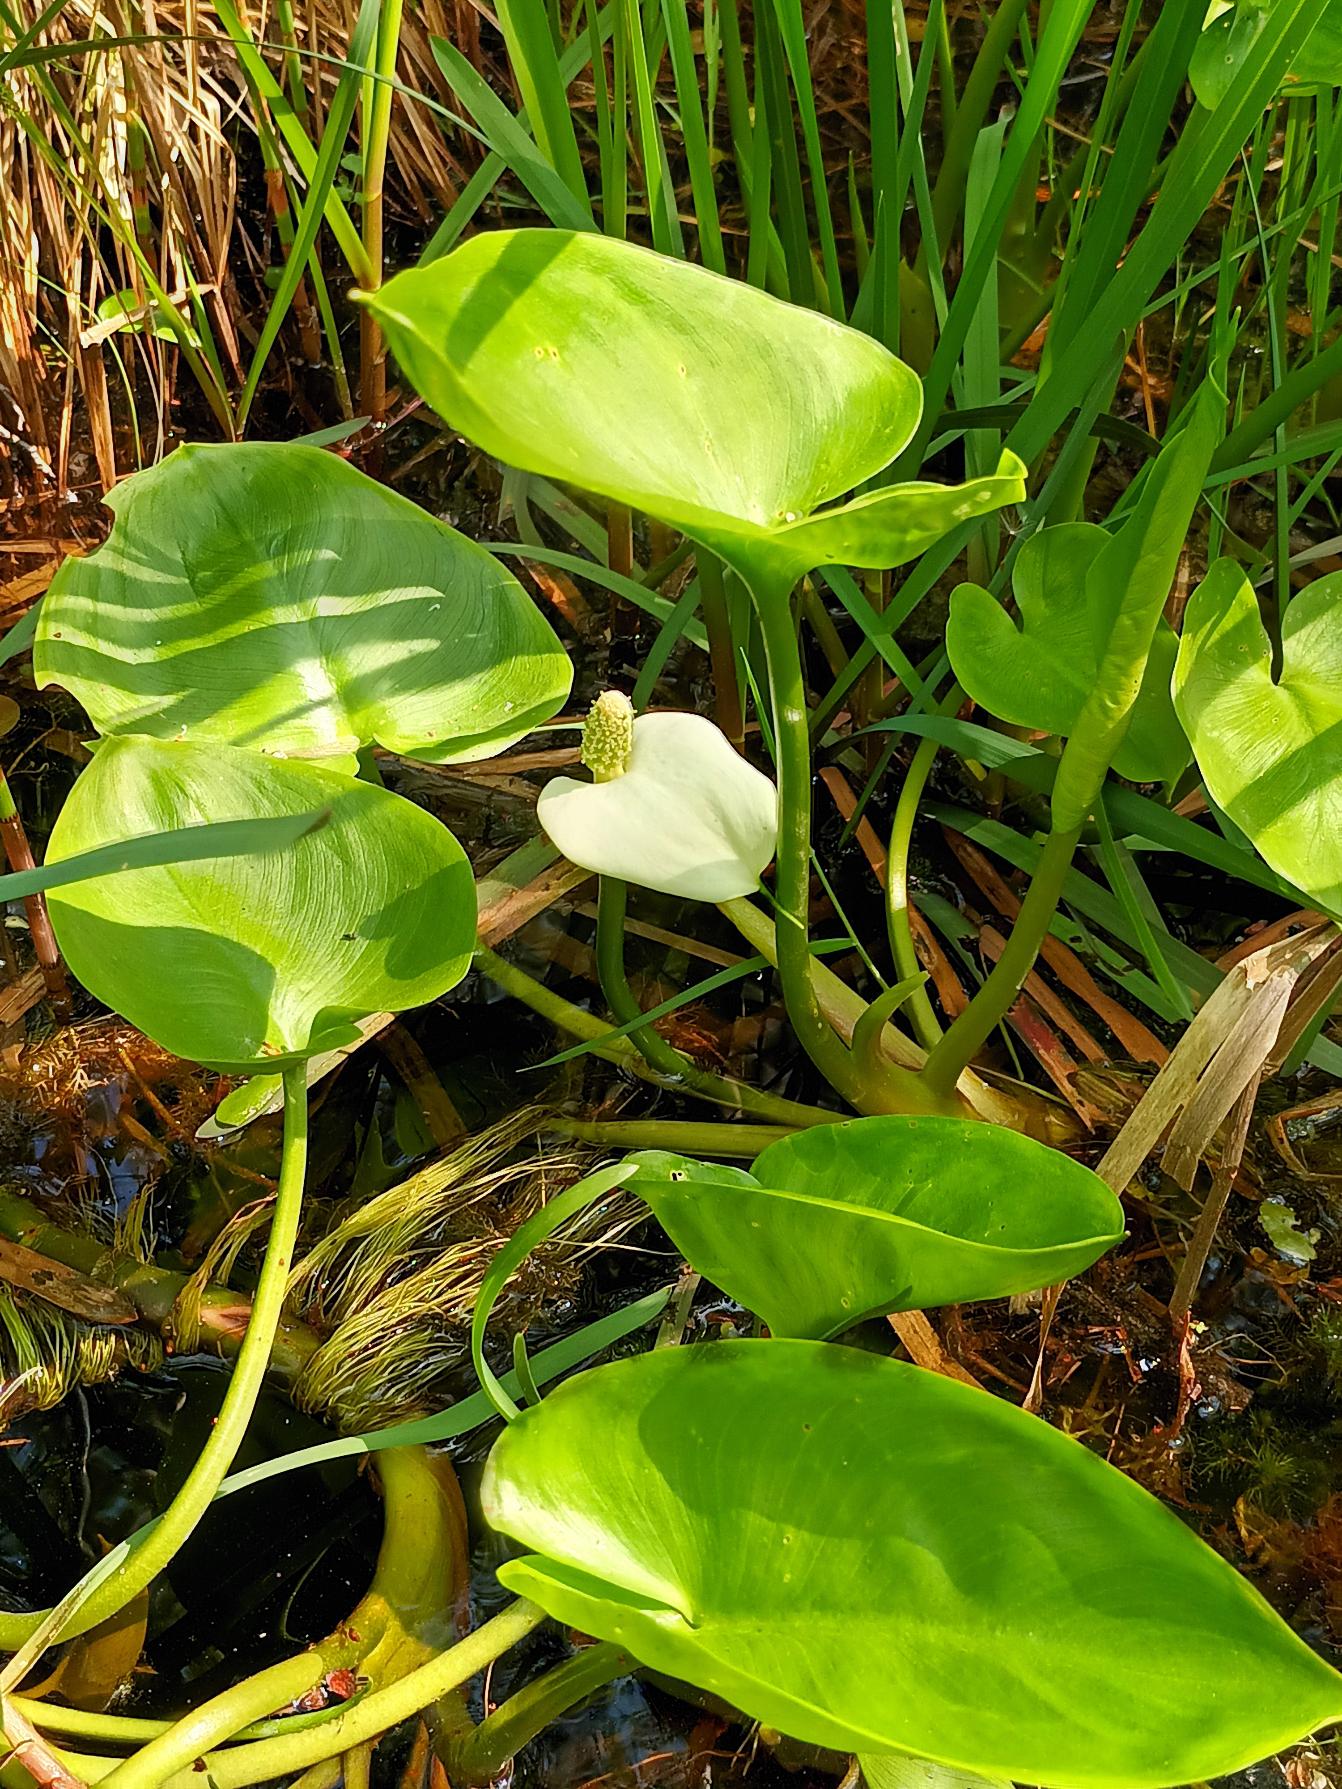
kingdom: Plantae
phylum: Tracheophyta
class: Liliopsida
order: Alismatales
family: Araceae
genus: Calla
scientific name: Calla palustris
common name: Kærmysse
